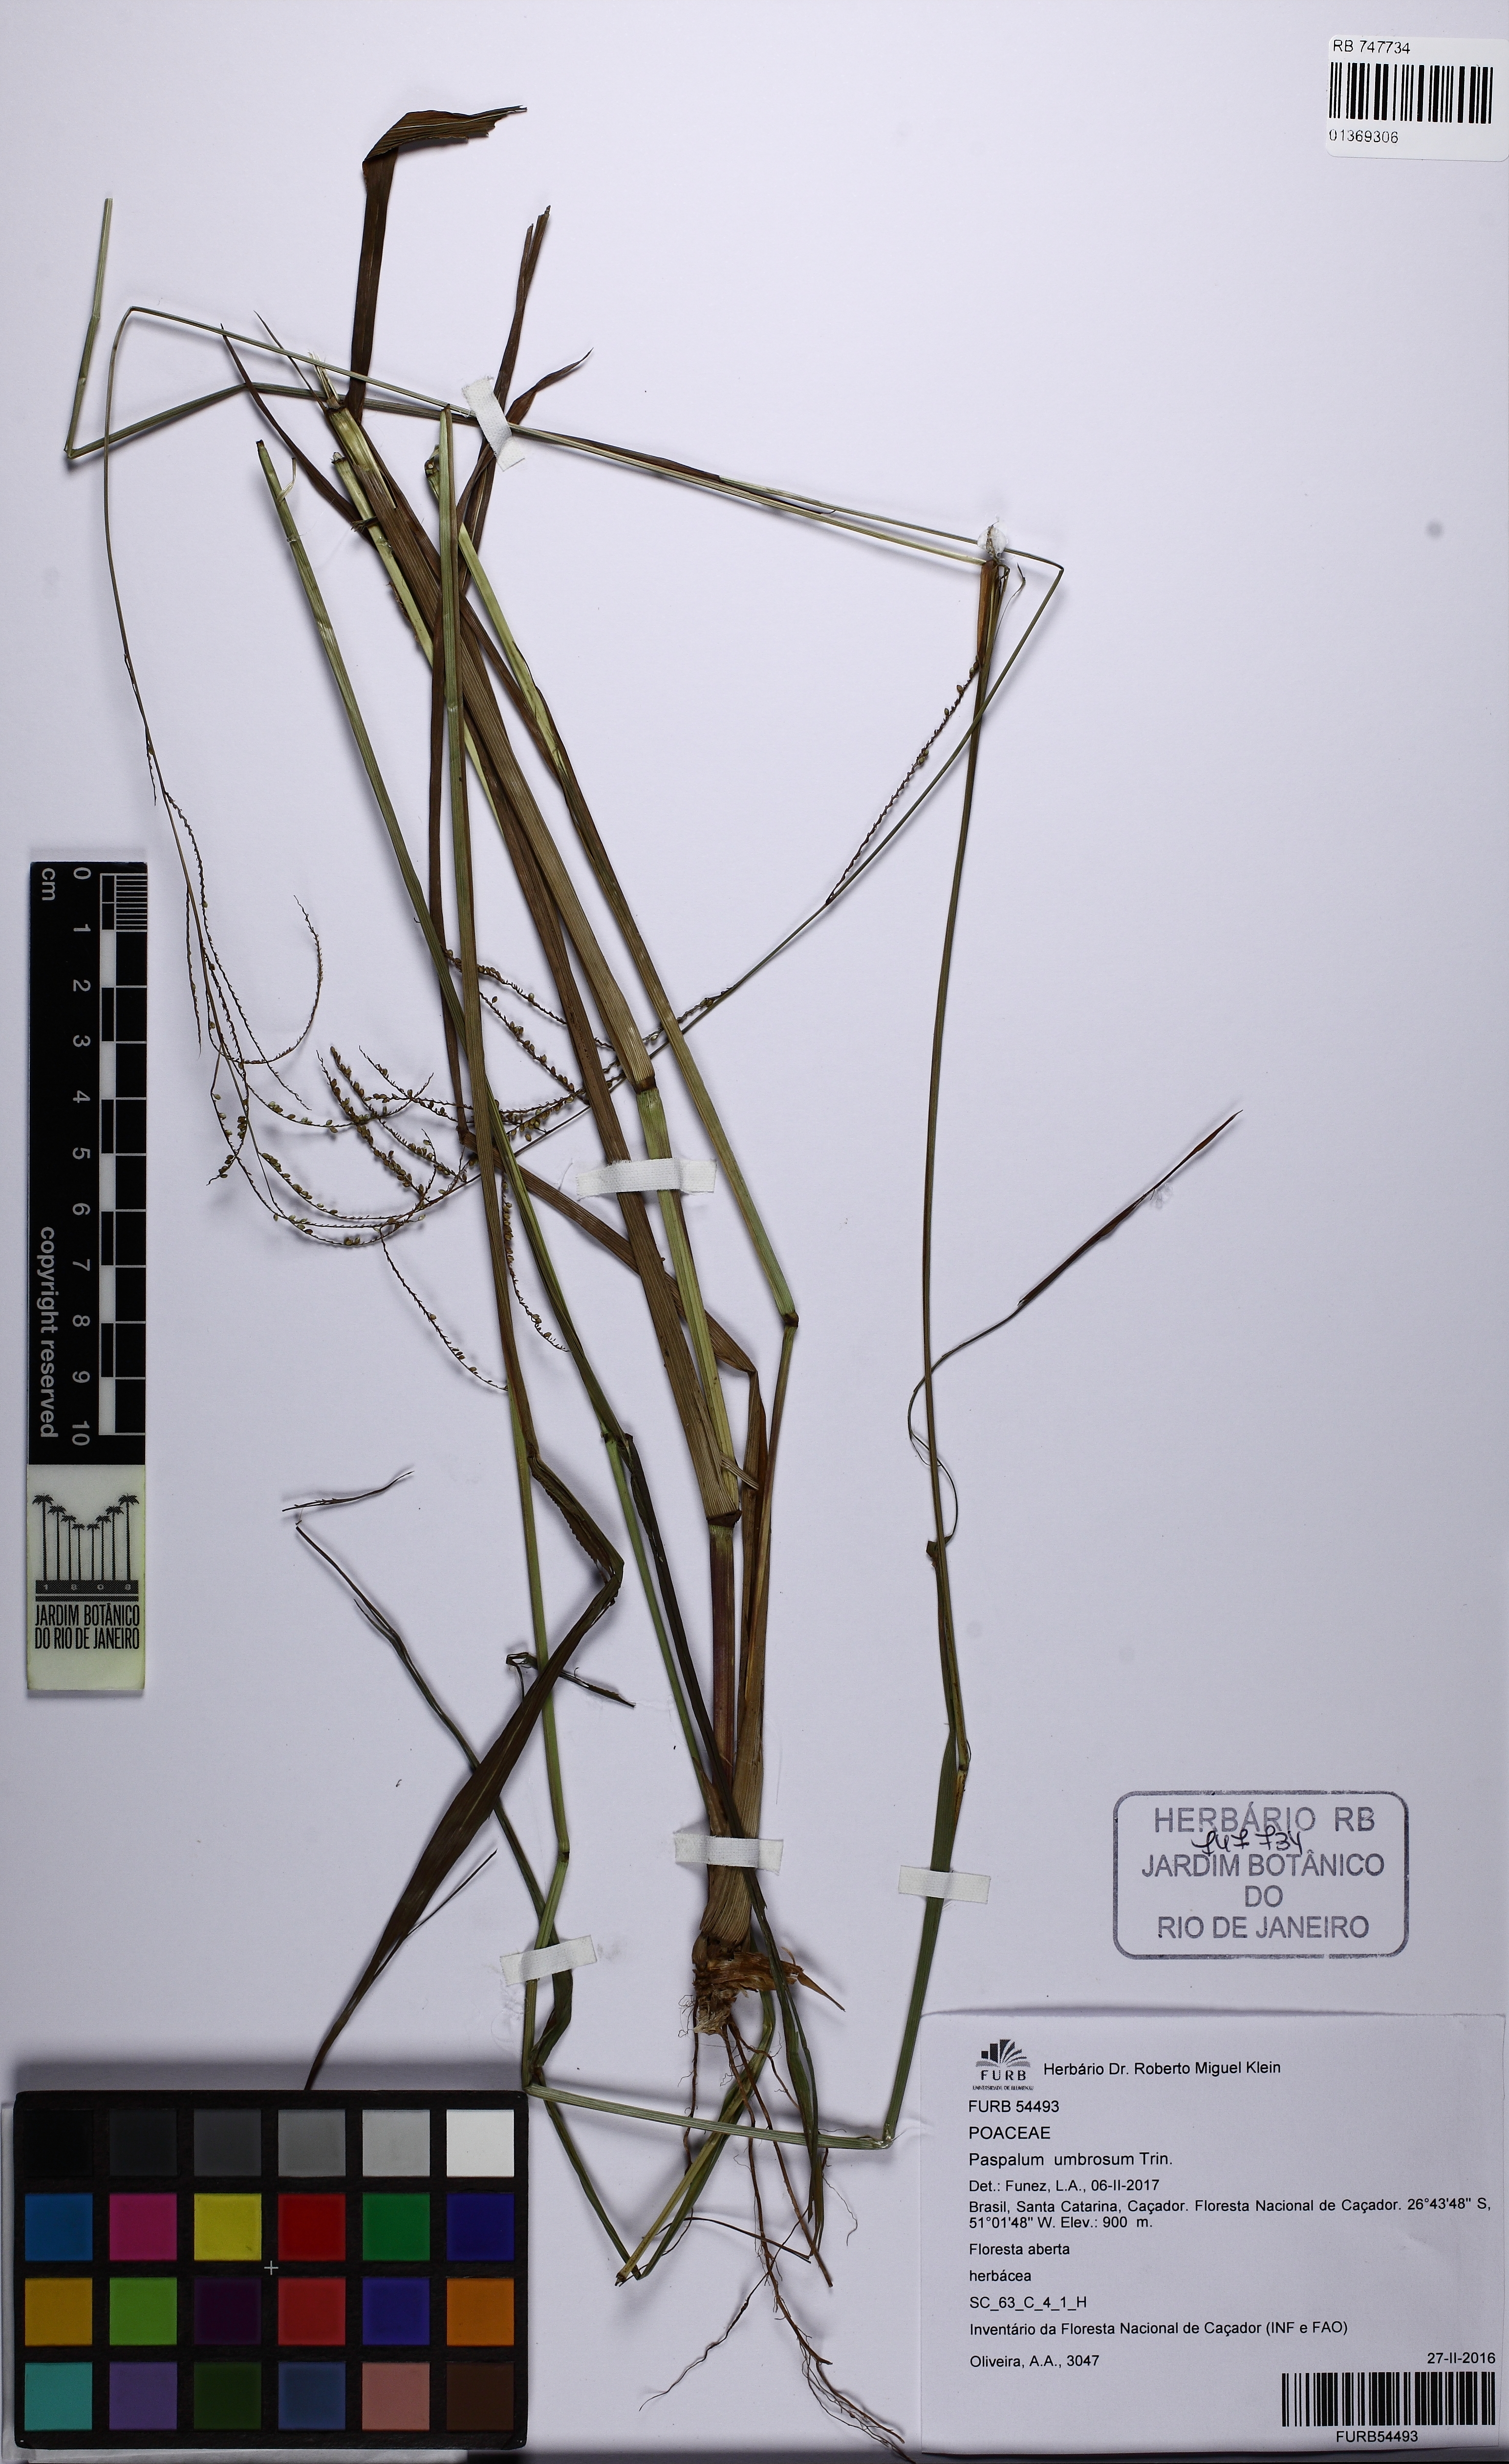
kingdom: Plantae
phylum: Tracheophyta
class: Liliopsida
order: Poales
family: Poaceae
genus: Paspalum
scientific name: Paspalum umbrosum
